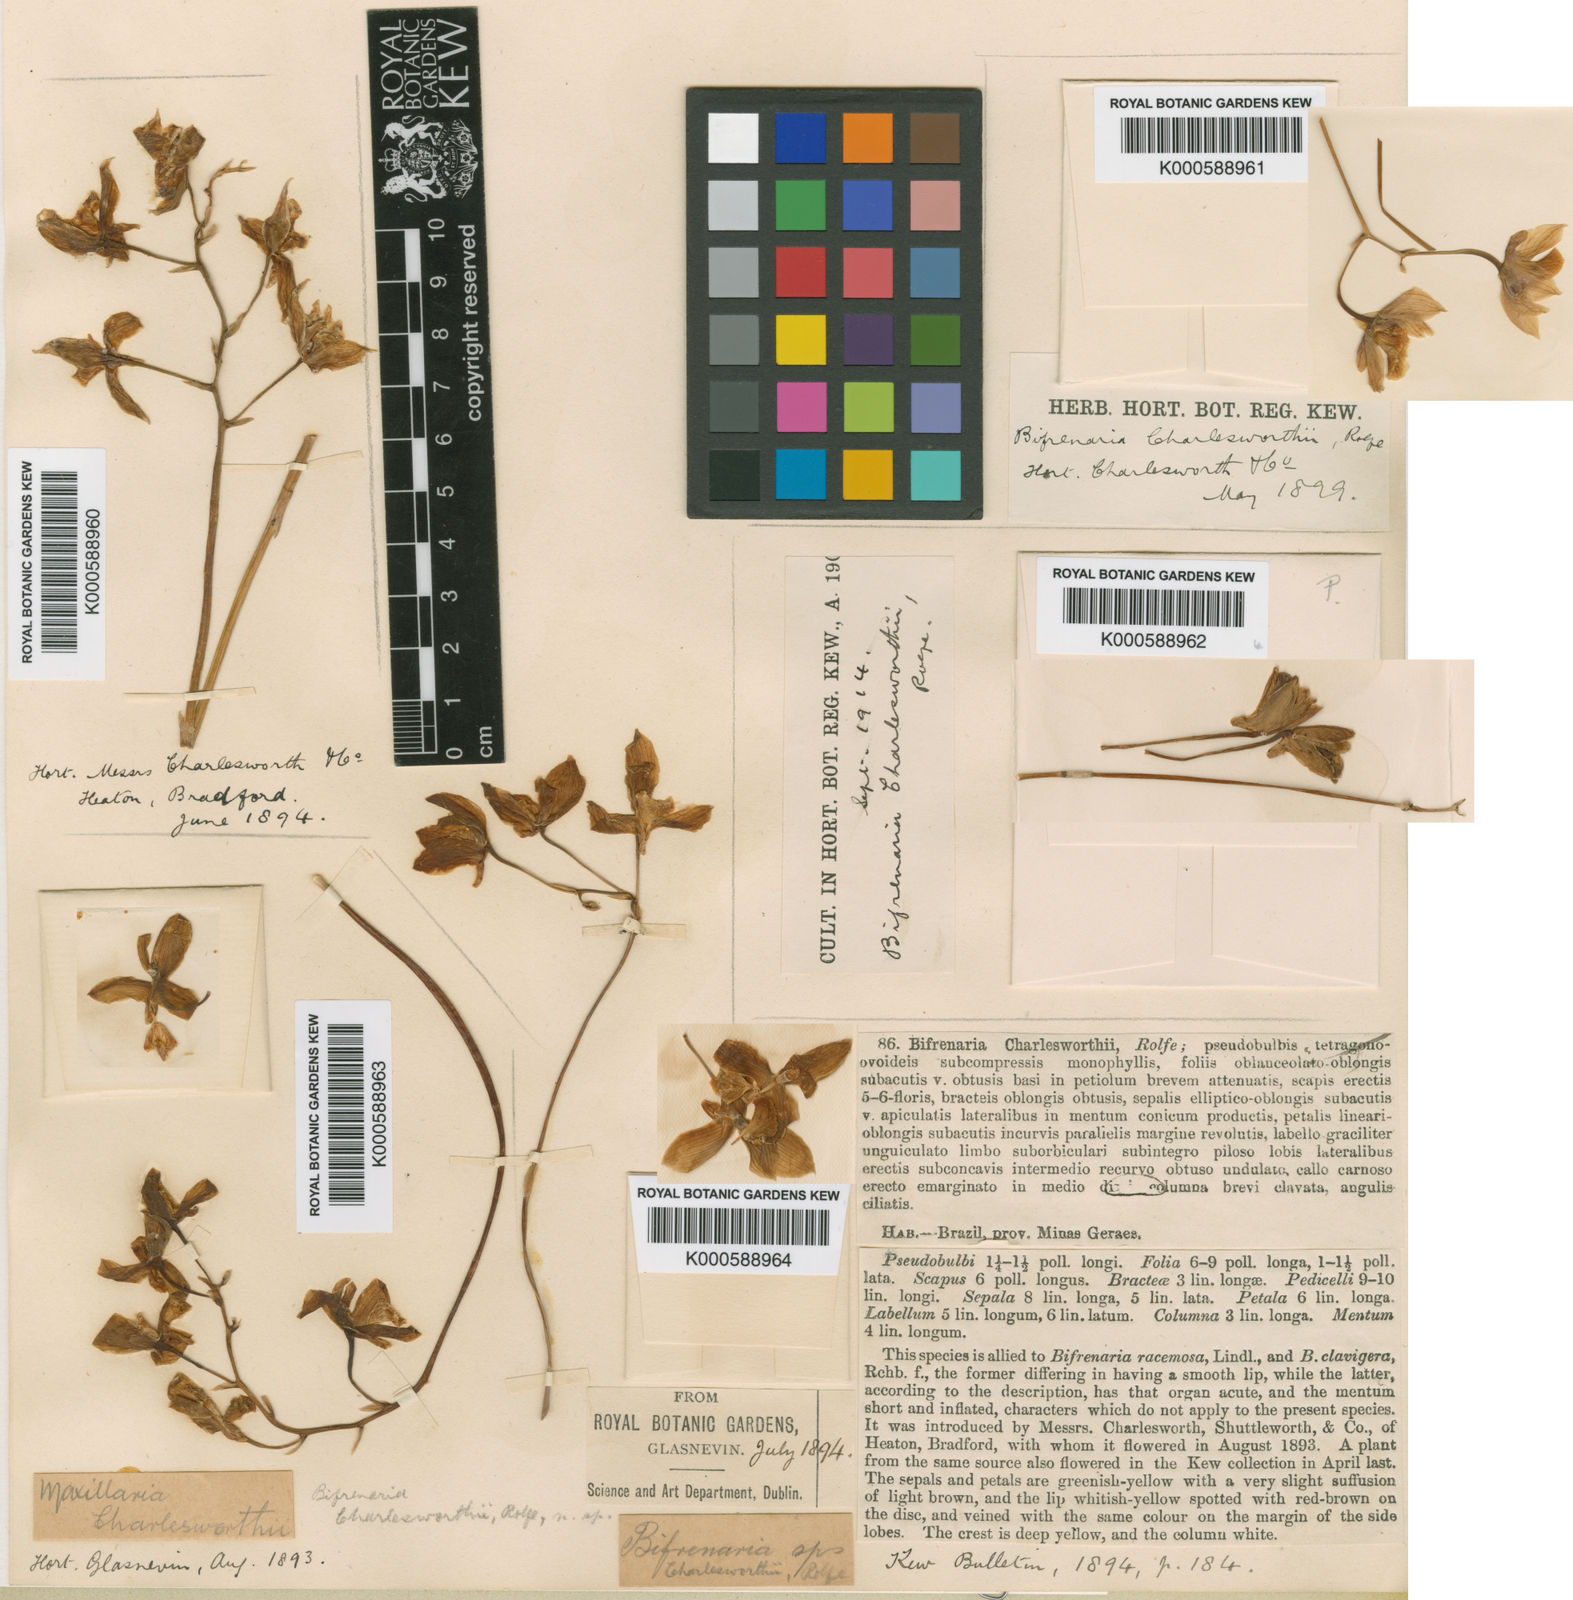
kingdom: Plantae
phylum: Tracheophyta
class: Liliopsida
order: Asparagales
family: Orchidaceae
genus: Bifrenaria
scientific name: Bifrenaria charlesworthii
